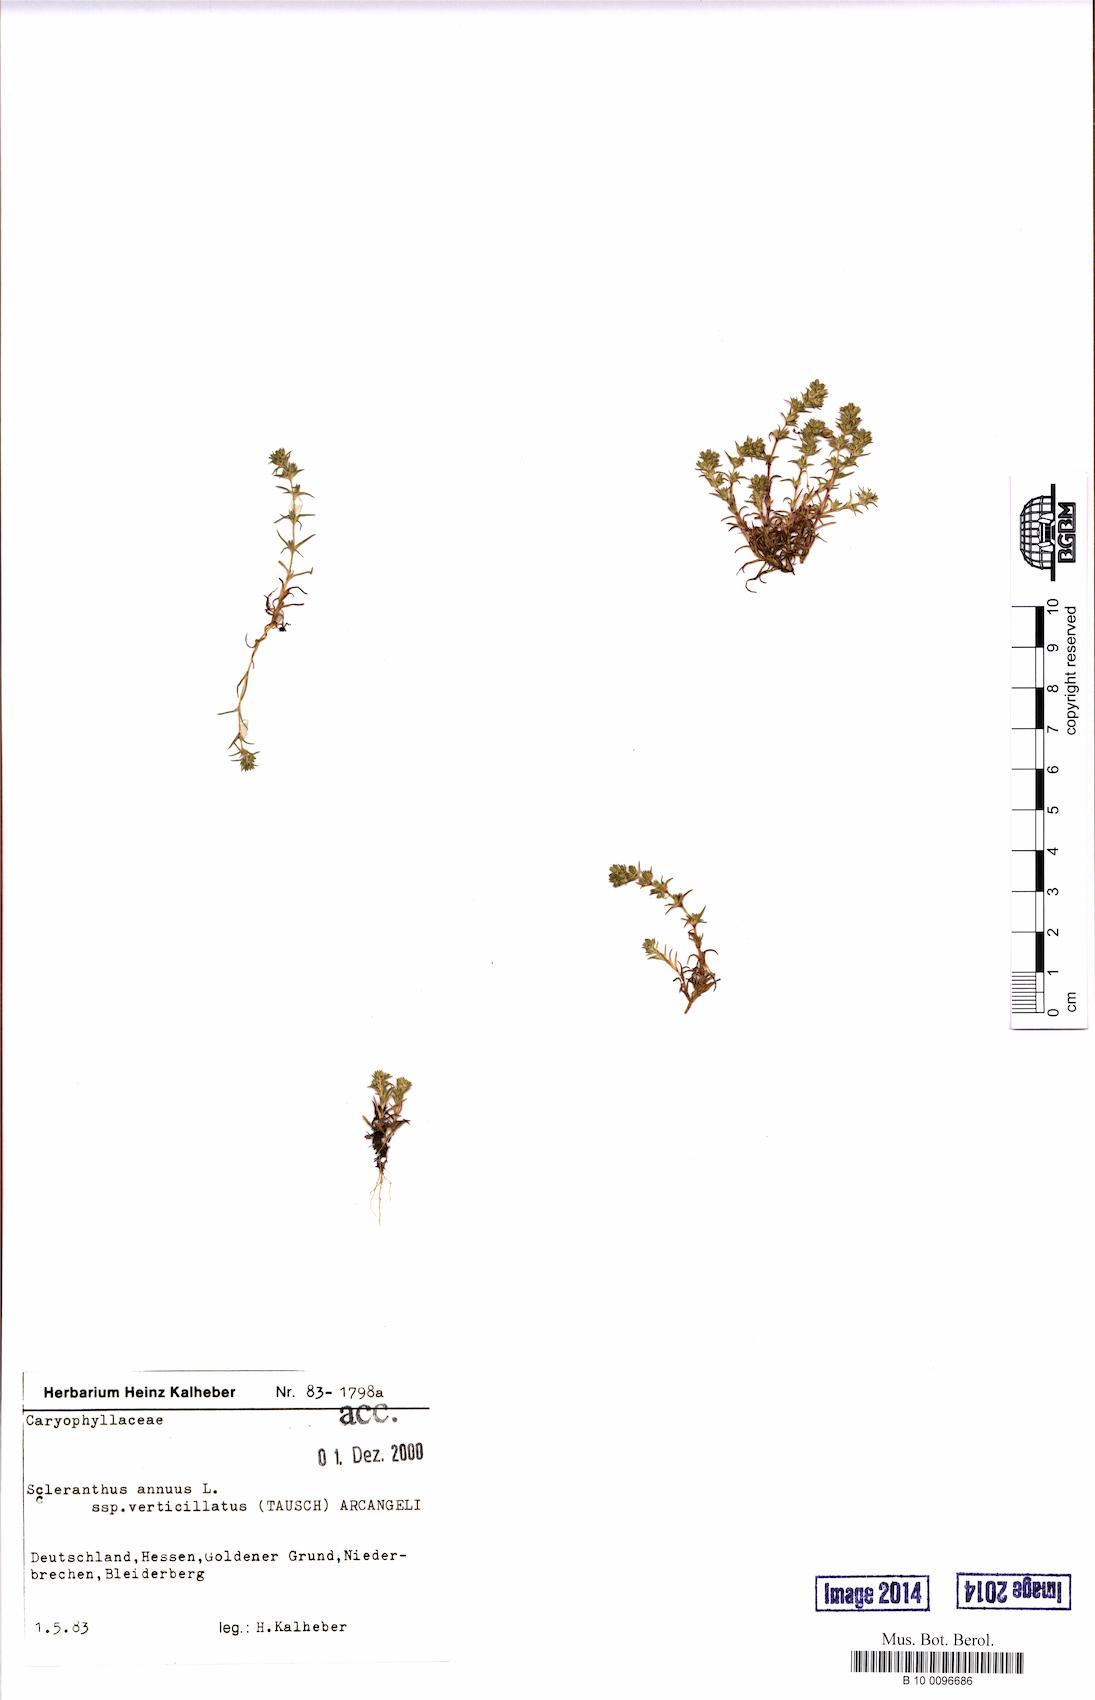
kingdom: Plantae
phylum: Tracheophyta
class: Magnoliopsida
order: Caryophyllales
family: Caryophyllaceae
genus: Scleranthus
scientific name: Scleranthus verticillatus
